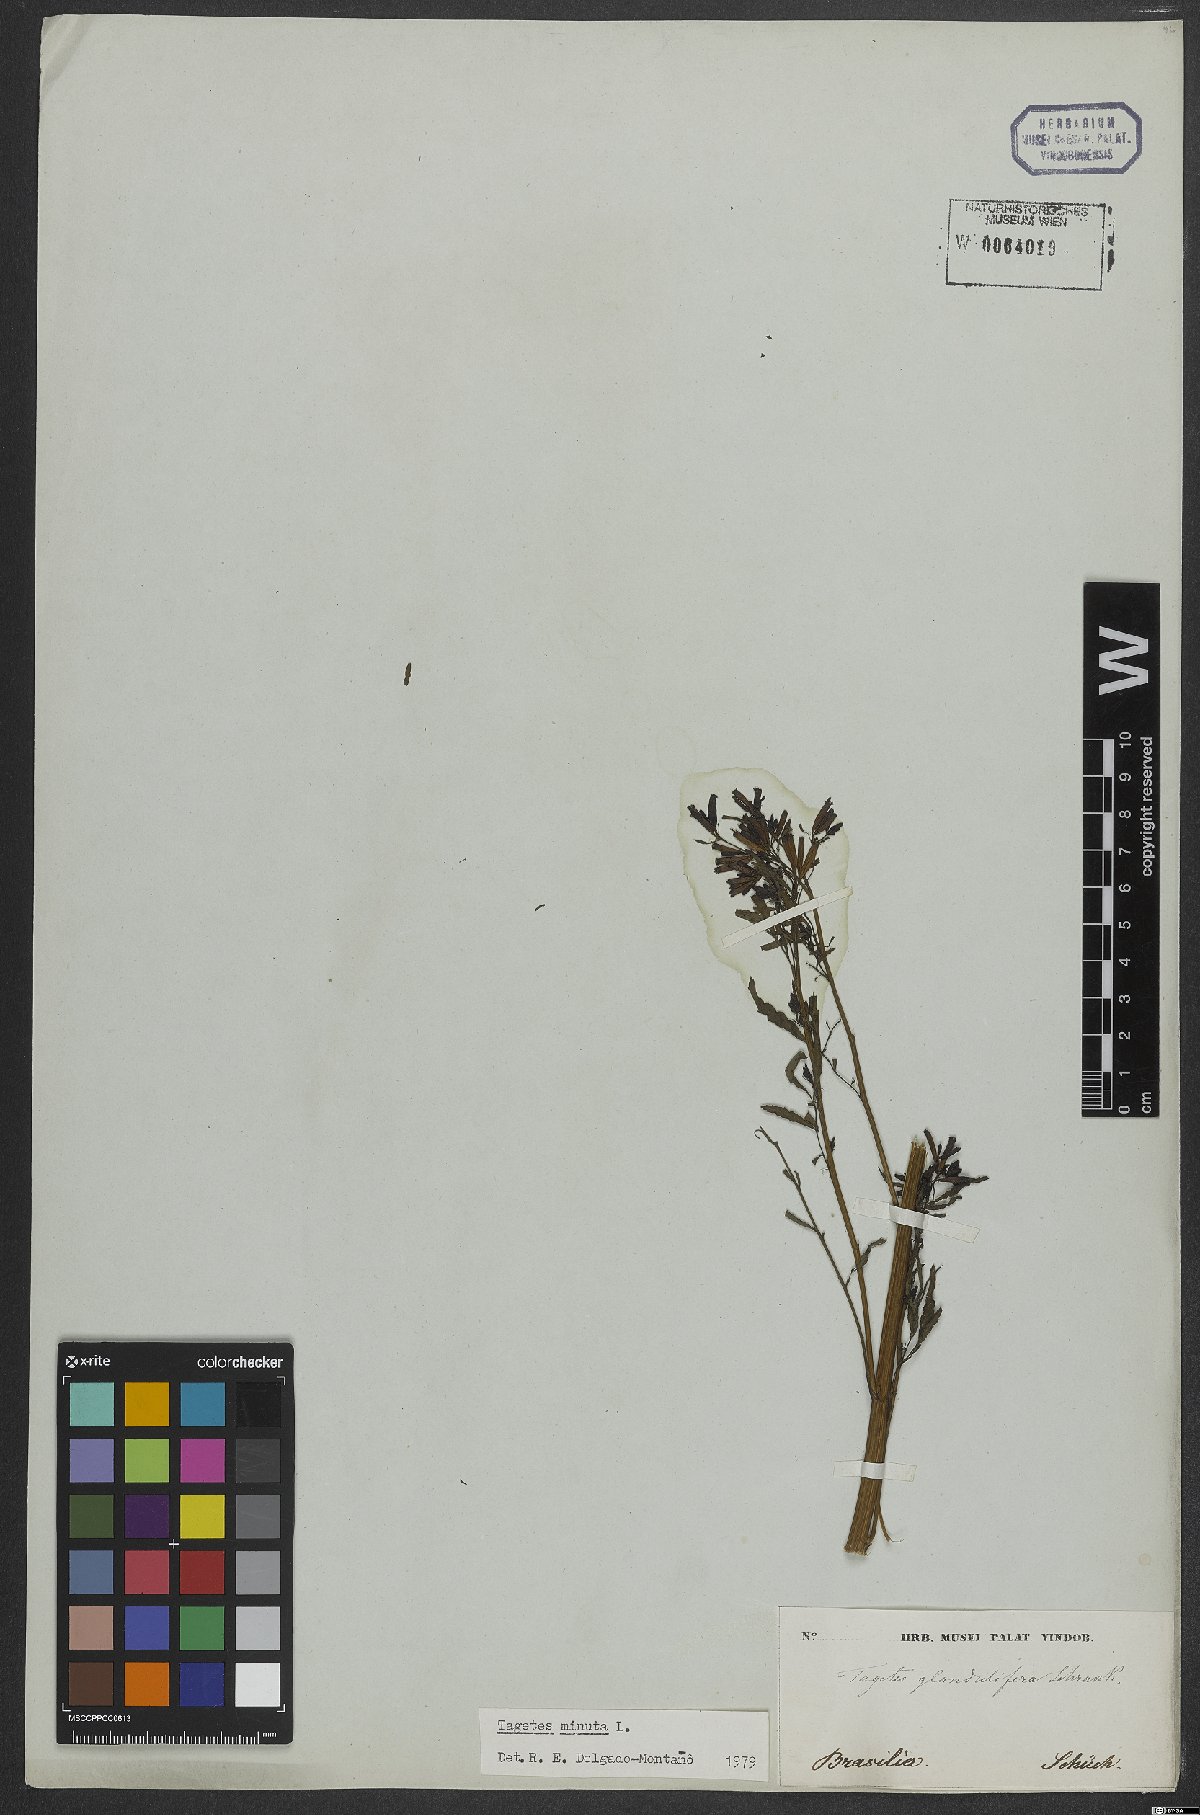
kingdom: Plantae
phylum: Tracheophyta
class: Magnoliopsida
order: Asterales
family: Asteraceae
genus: Tagetes
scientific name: Tagetes minuta
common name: Muster john henry
